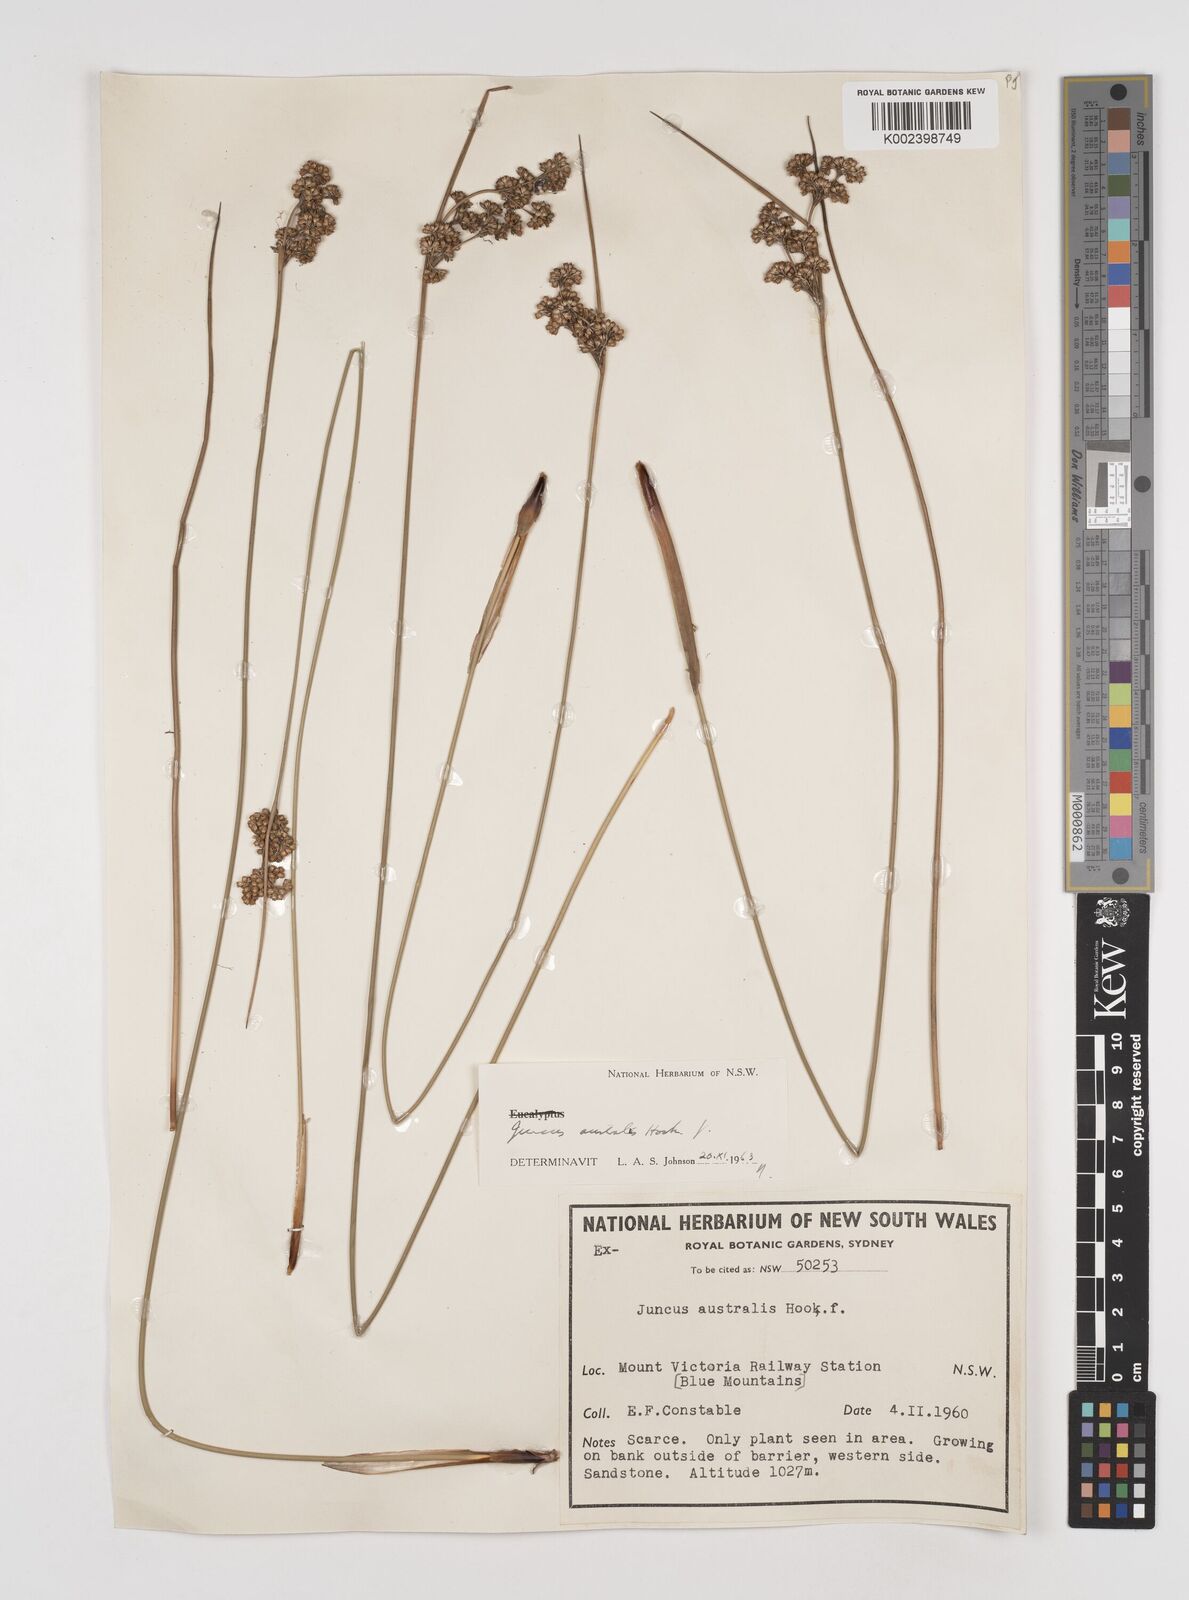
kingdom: Plantae
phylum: Tracheophyta
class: Liliopsida
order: Poales
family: Juncaceae
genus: Juncus
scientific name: Juncus australis
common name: Austral rush
